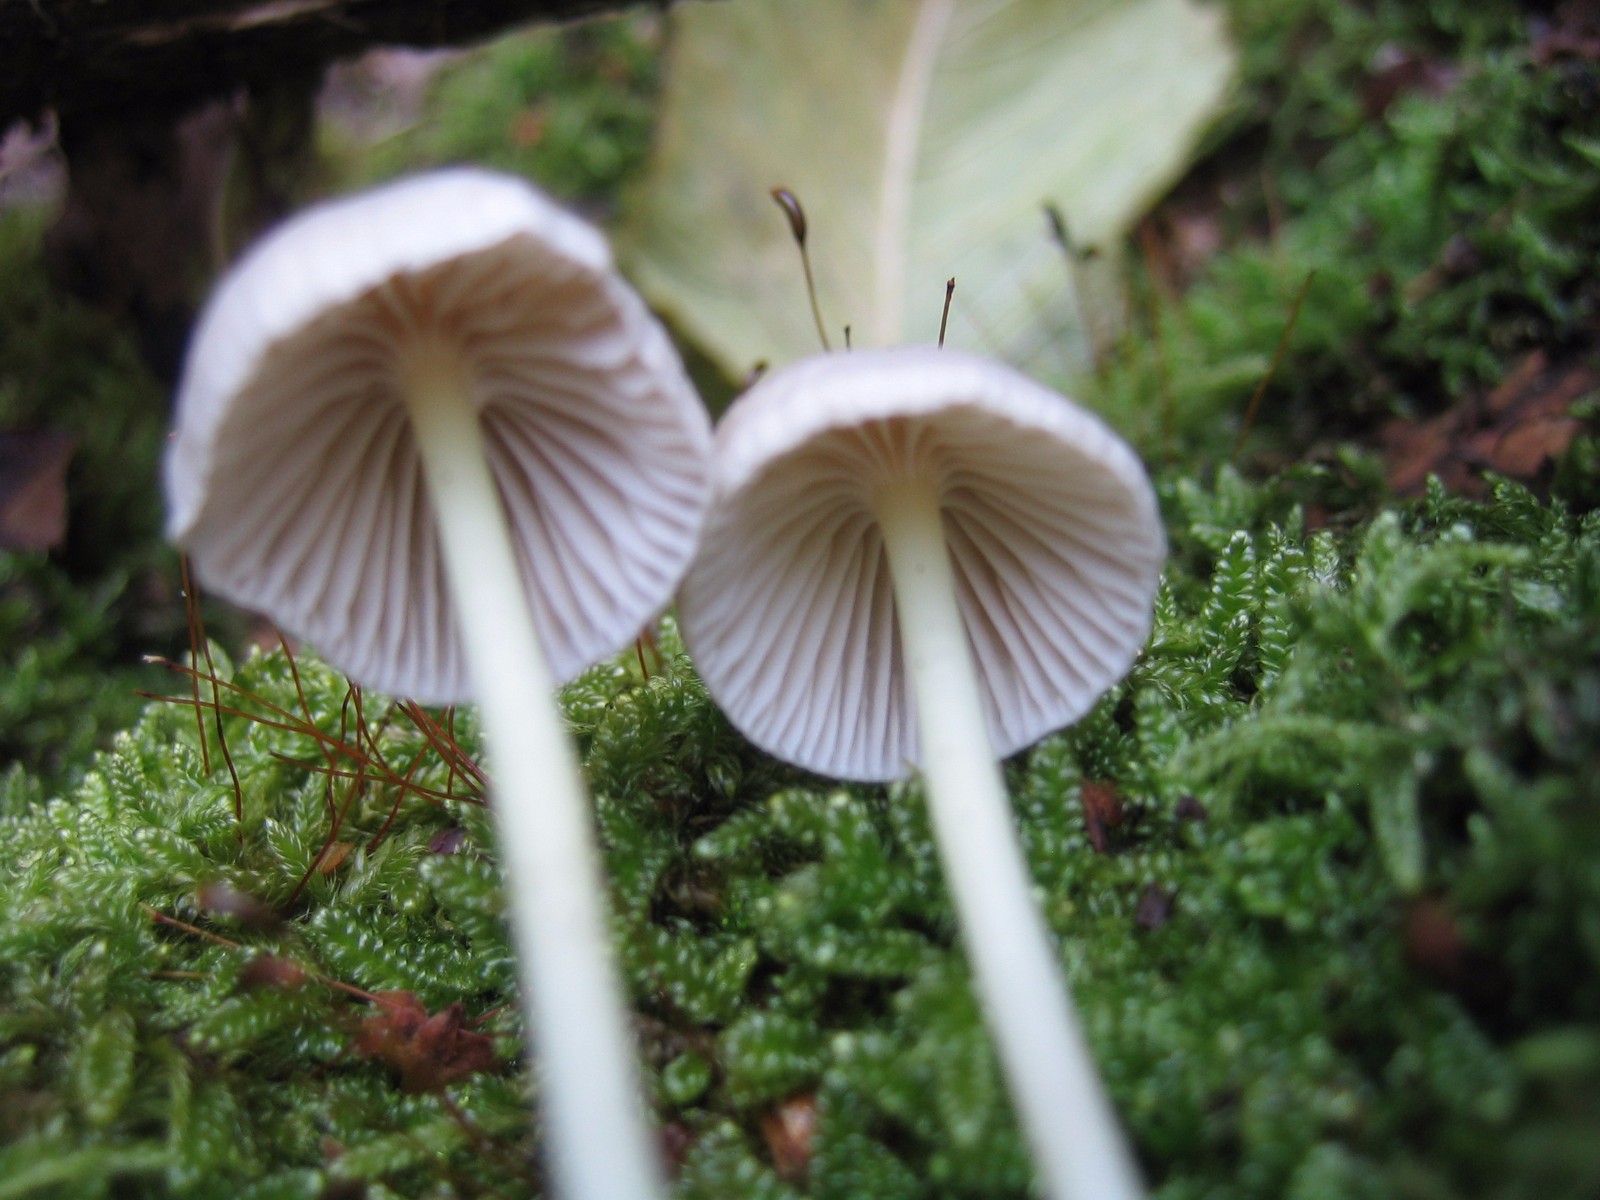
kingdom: Fungi
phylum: Basidiomycota
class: Agaricomycetes
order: Agaricales
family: Mycenaceae
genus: Mycena
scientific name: Mycena epipterygia
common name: gulstokket huesvamp
